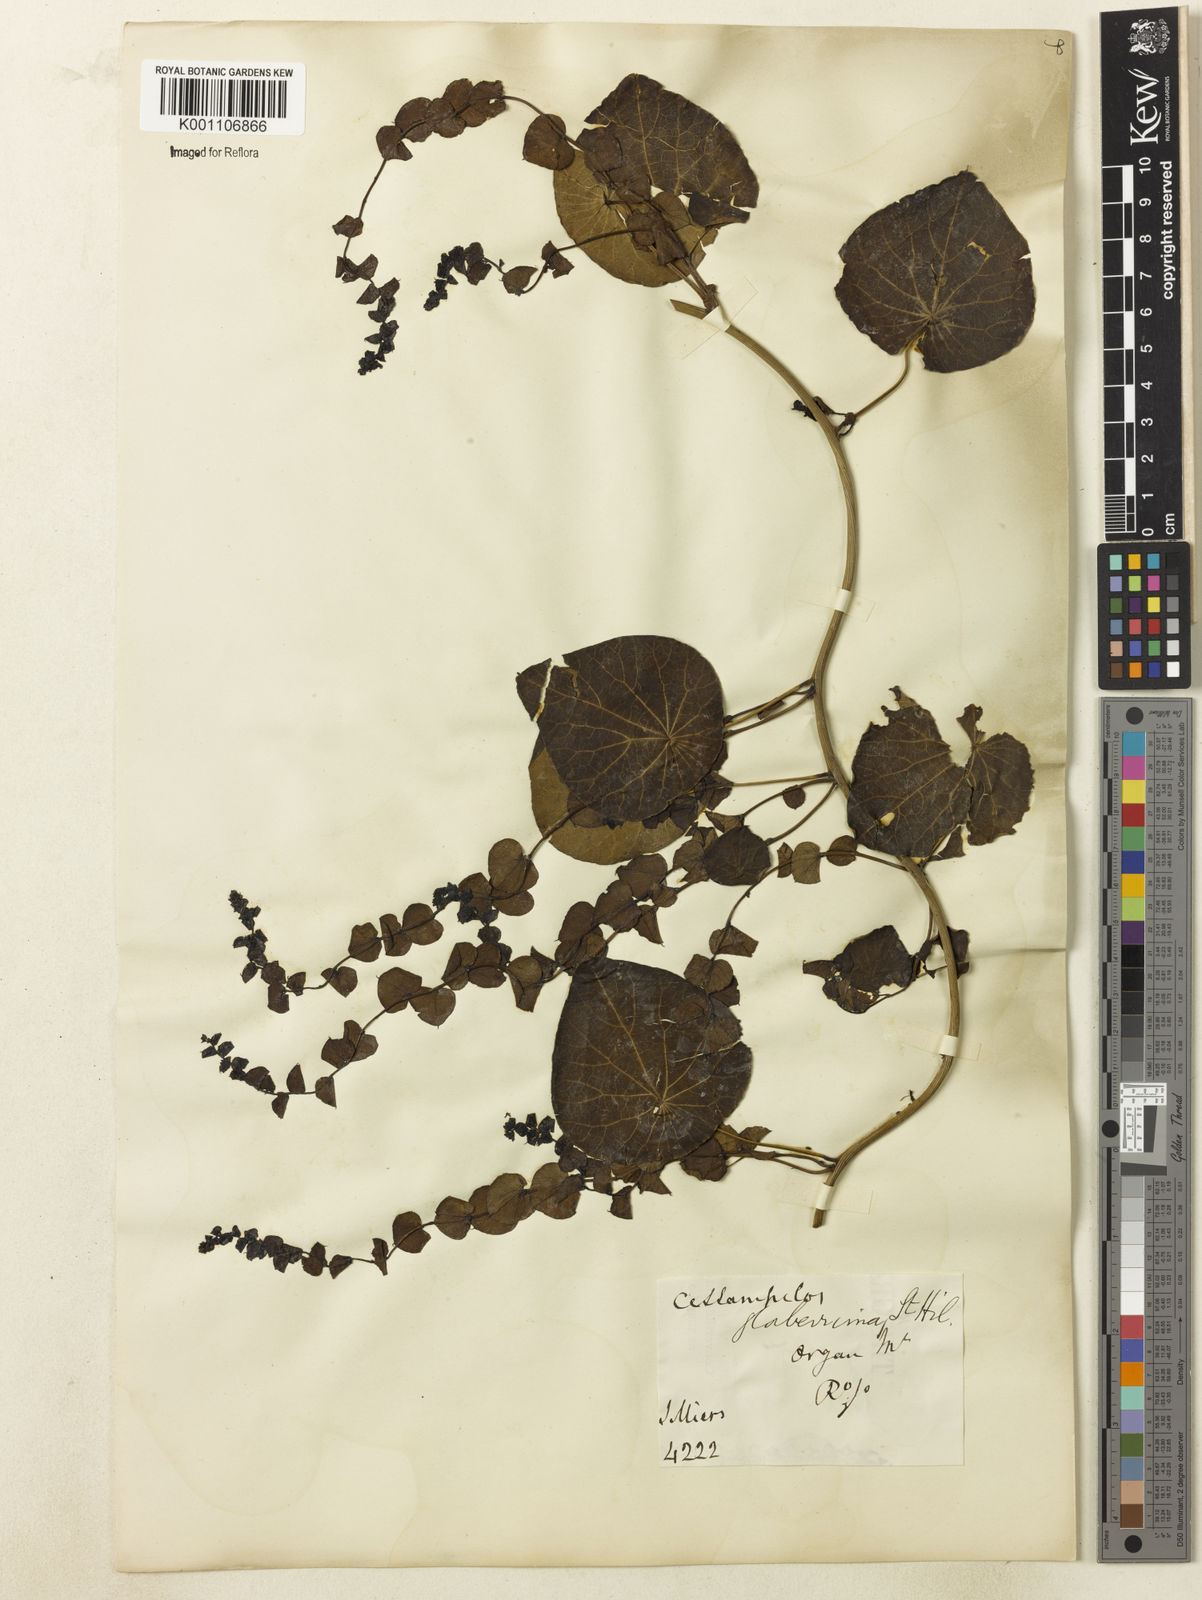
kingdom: Plantae
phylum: Tracheophyta
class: Magnoliopsida
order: Ranunculales
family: Menispermaceae
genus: Cissampelos
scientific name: Cissampelos glaberrima
